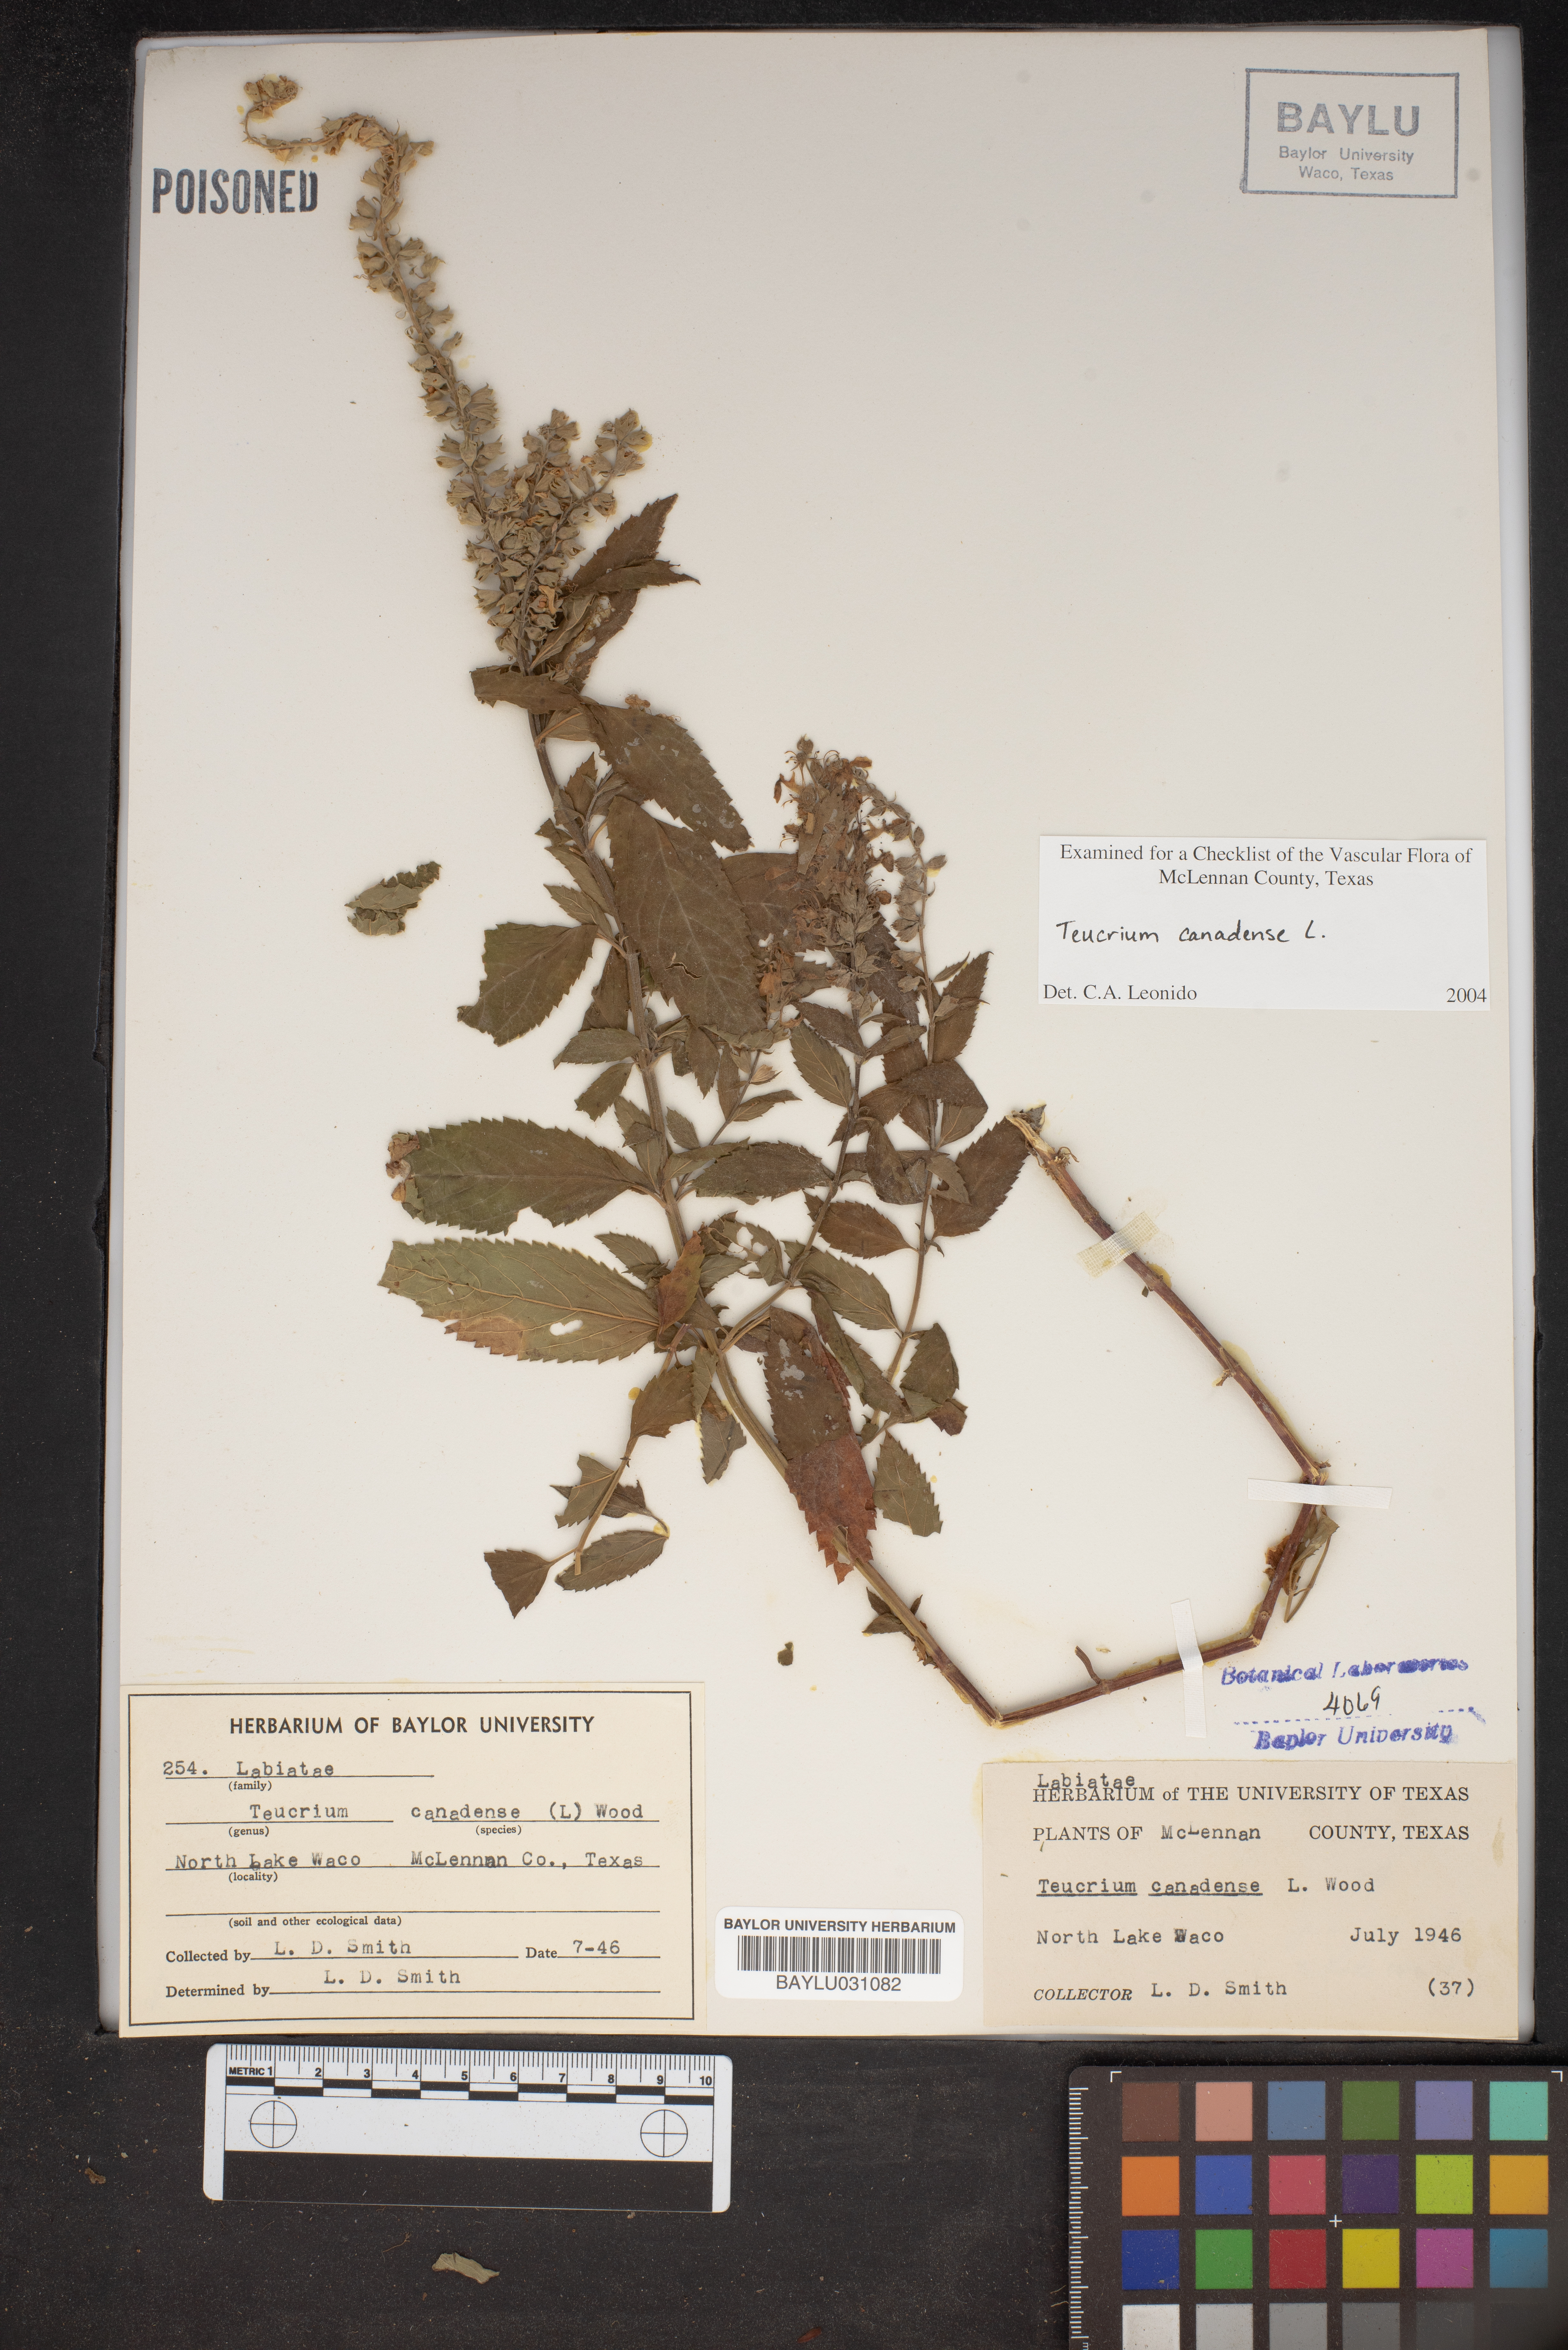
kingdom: Plantae
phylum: Tracheophyta
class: Magnoliopsida
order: Lamiales
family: Lamiaceae
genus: Teucrium
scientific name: Teucrium canadense
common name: American germander
